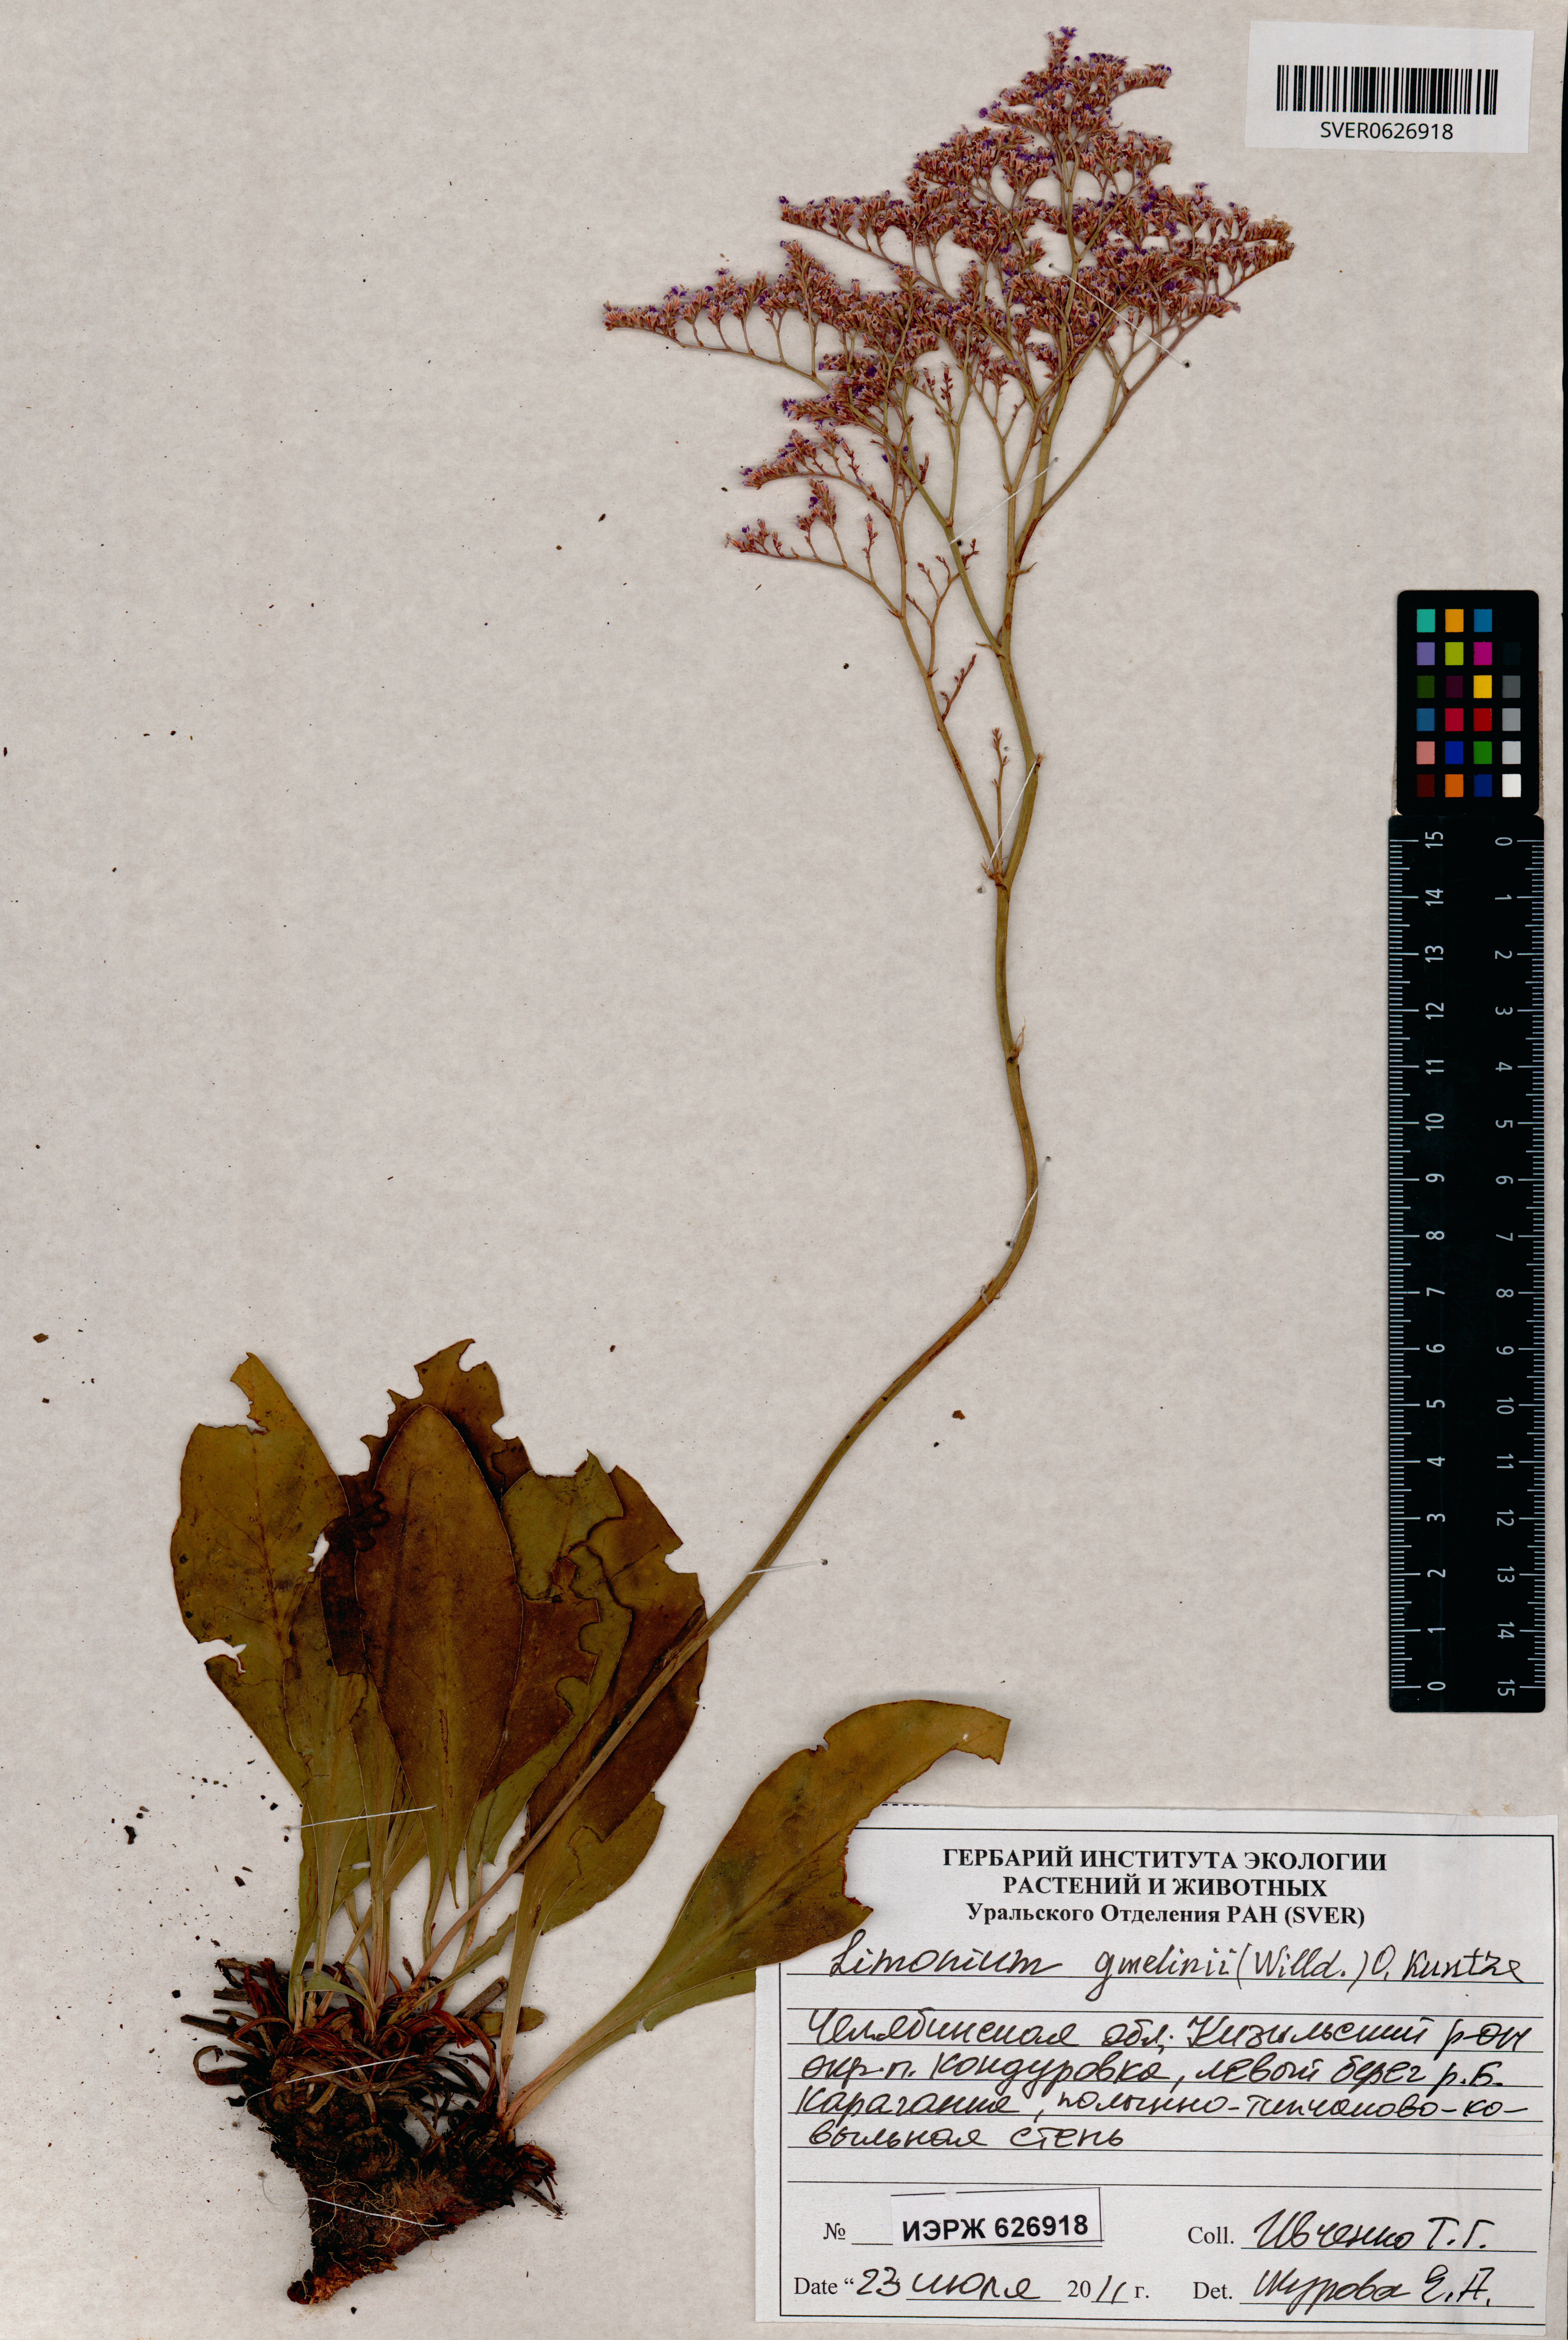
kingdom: Plantae
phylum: Tracheophyta
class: Magnoliopsida
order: Caryophyllales
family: Plumbaginaceae
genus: Limonium
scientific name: Limonium gmelini
